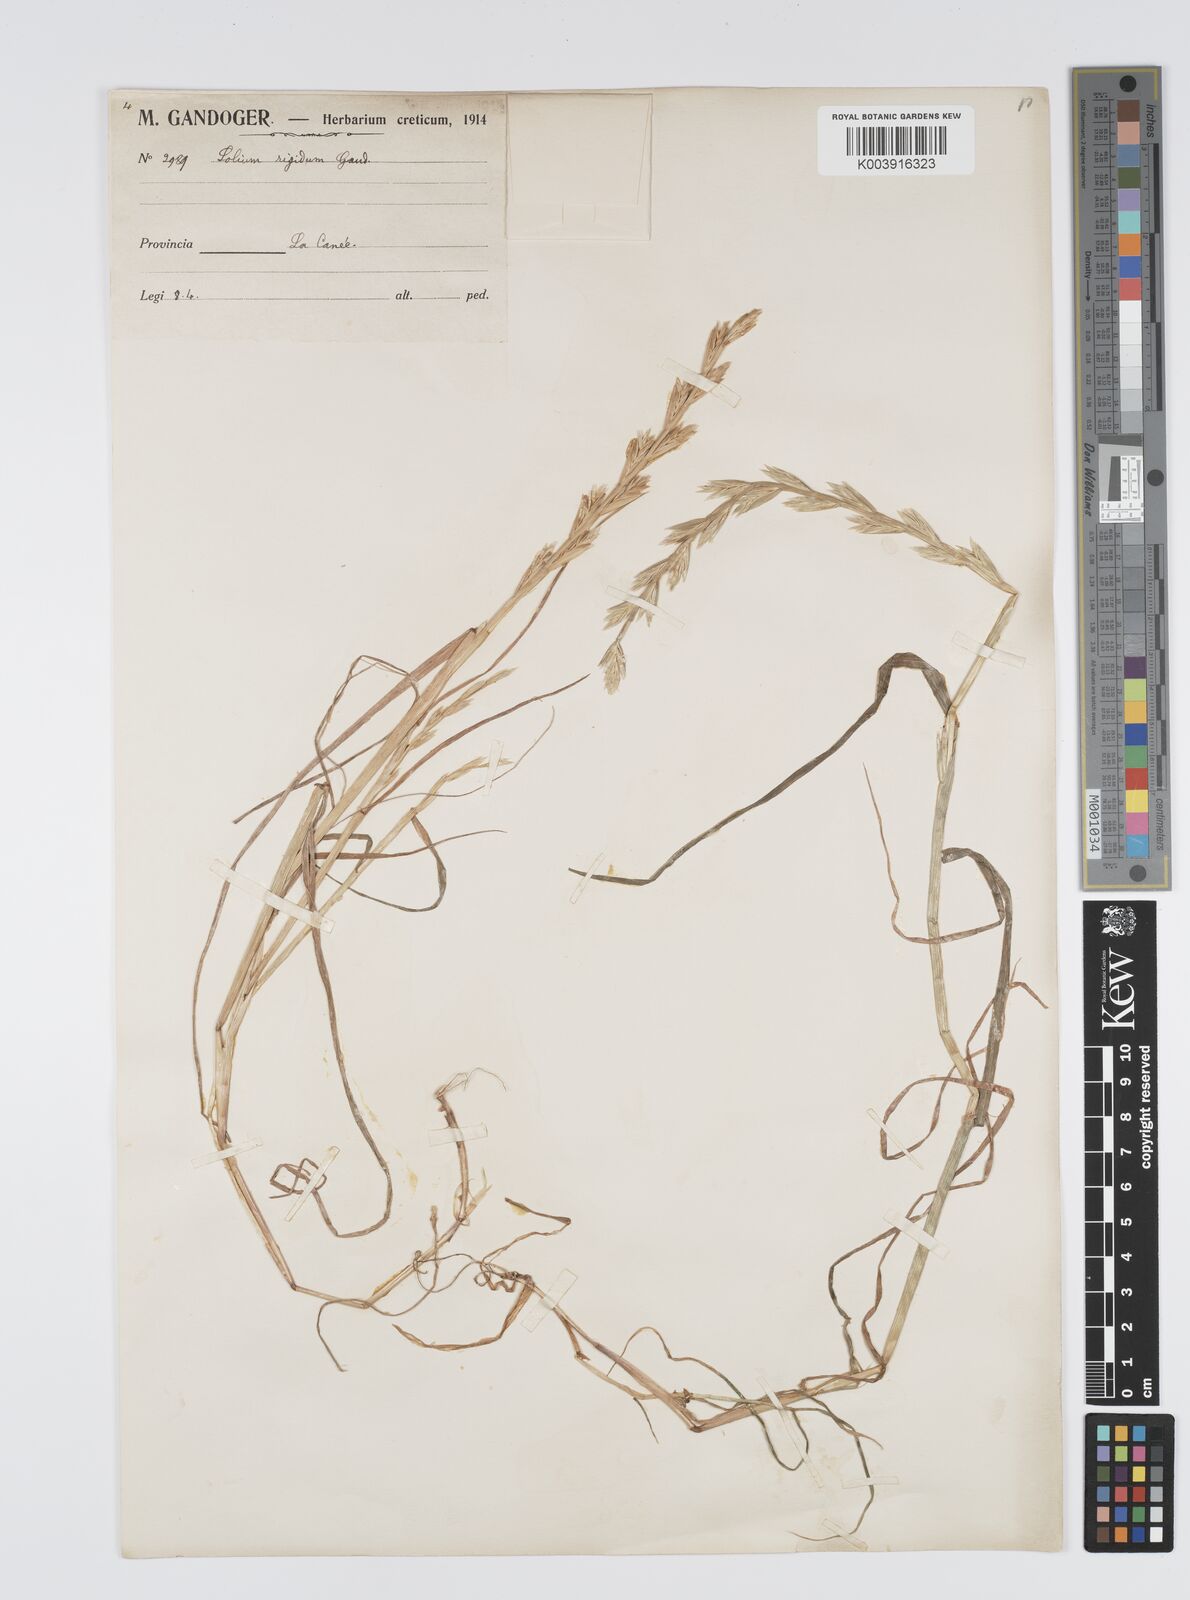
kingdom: Plantae
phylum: Tracheophyta
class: Liliopsida
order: Poales
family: Poaceae
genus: Lolium
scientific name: Lolium rigidum
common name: Wimmera ryegrass
